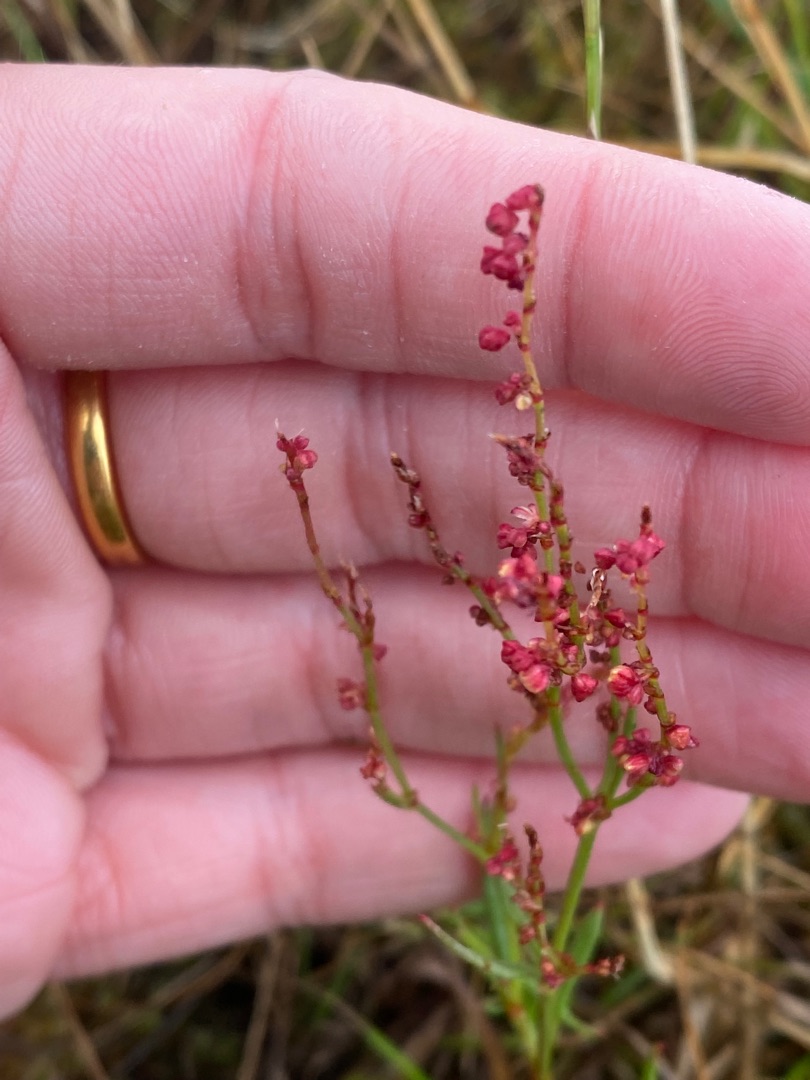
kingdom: Plantae
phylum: Tracheophyta
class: Magnoliopsida
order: Caryophyllales
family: Polygonaceae
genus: Rumex
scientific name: Rumex acetosella
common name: Rødknæ
